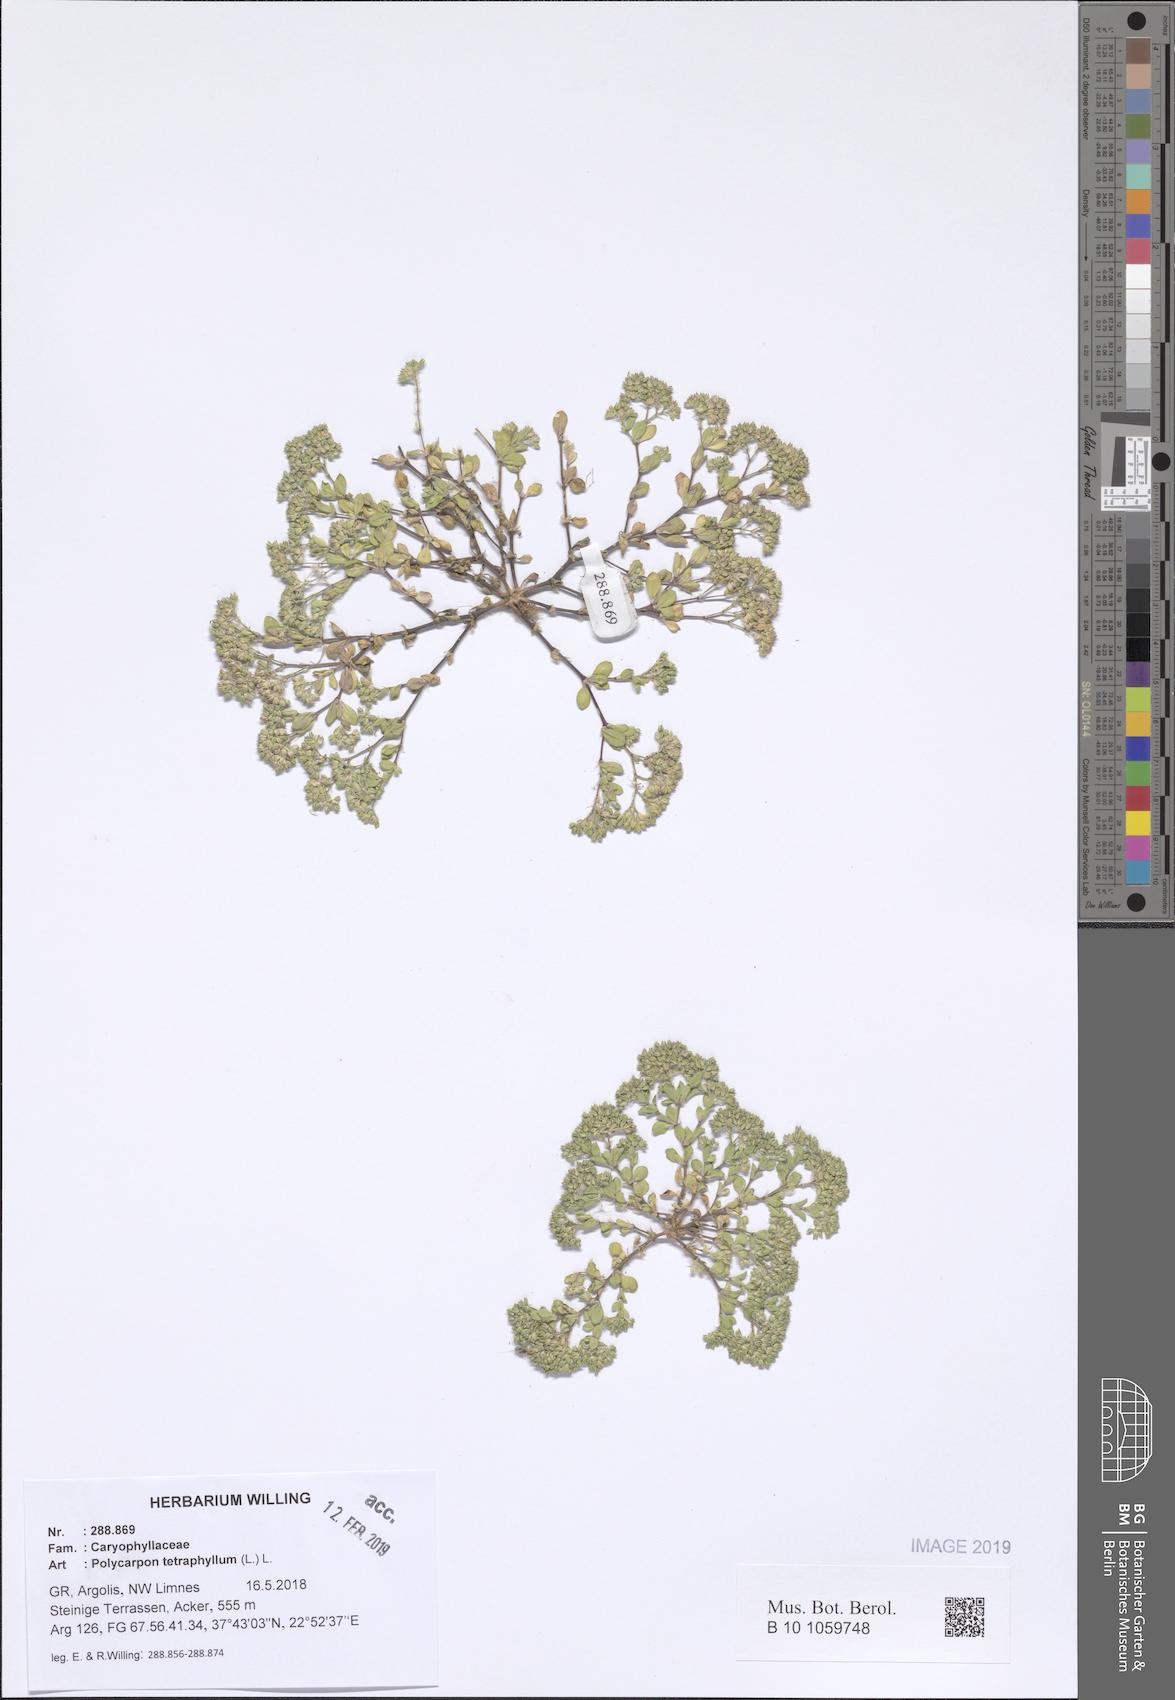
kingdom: Plantae
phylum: Tracheophyta
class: Magnoliopsida
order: Caryophyllales
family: Caryophyllaceae
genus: Polycarpon
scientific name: Polycarpon tetraphyllum
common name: Four-leaved all-seed
